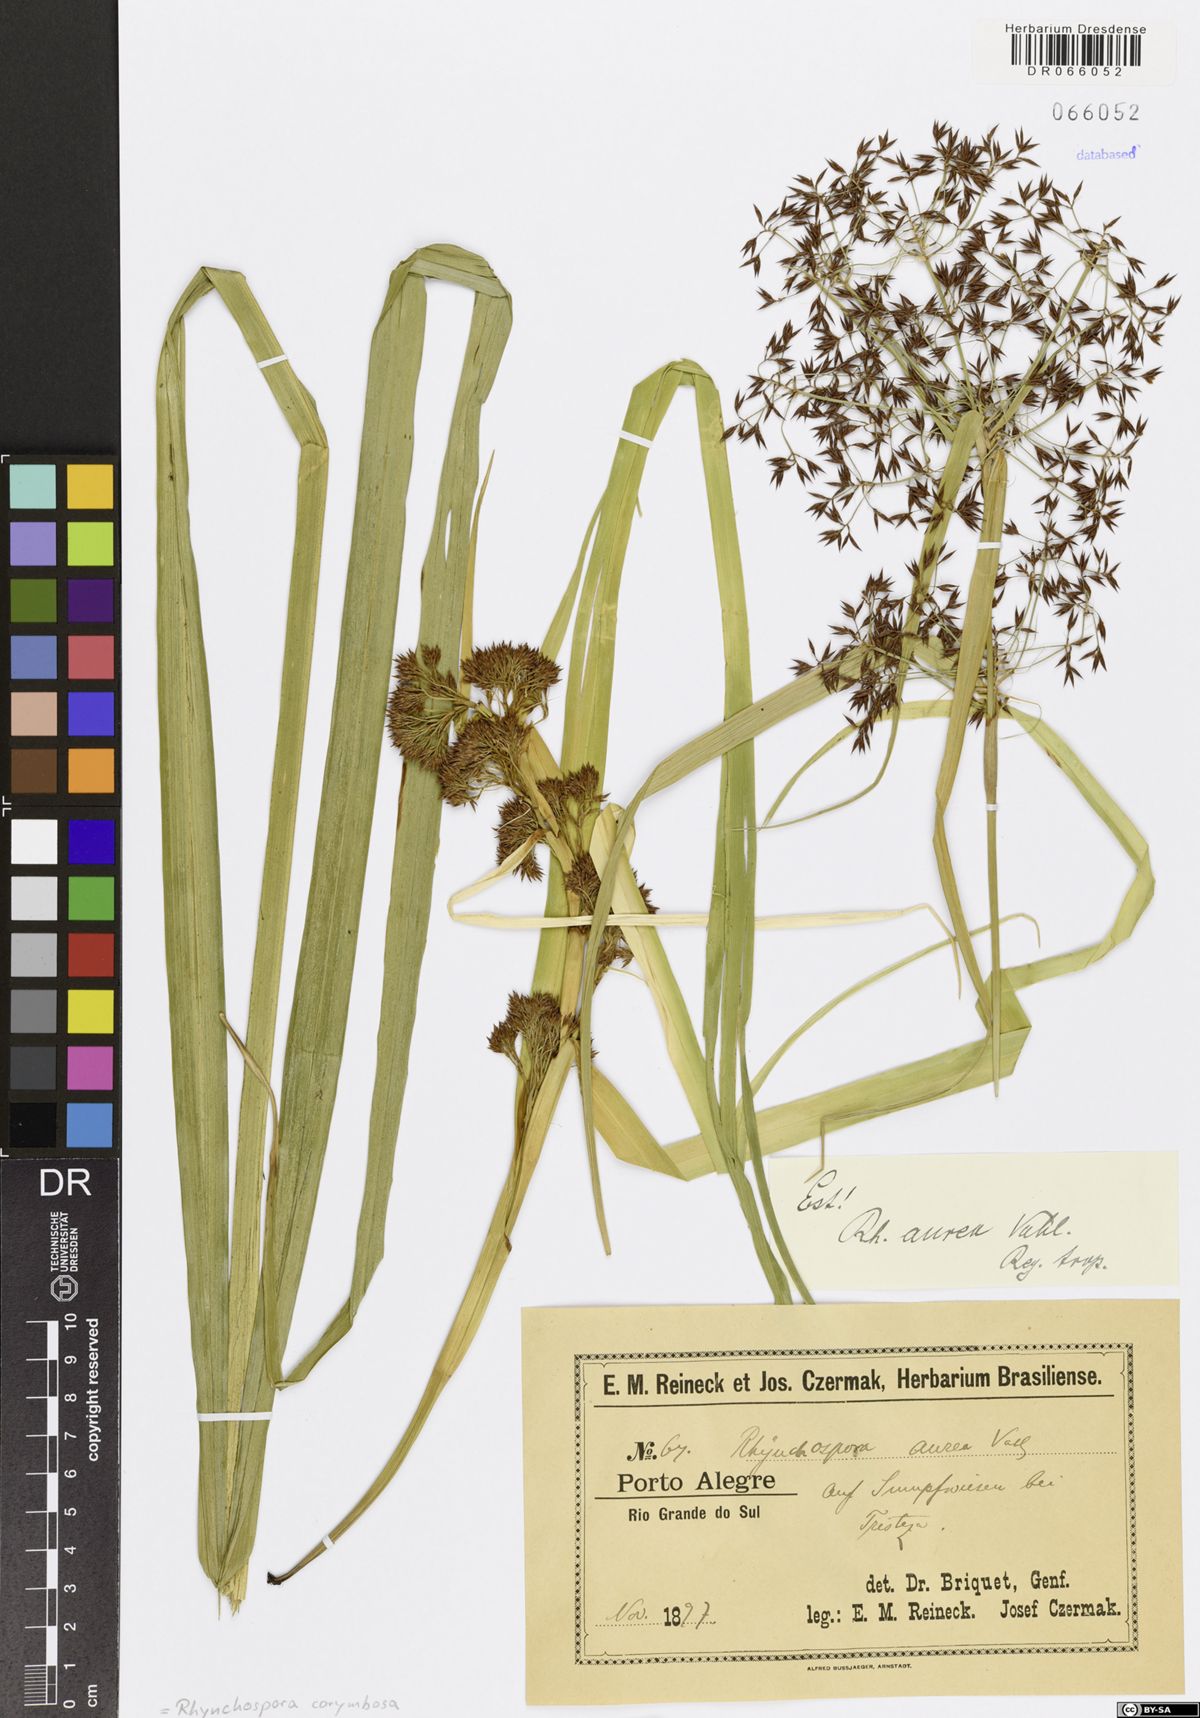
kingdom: Plantae
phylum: Tracheophyta
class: Liliopsida
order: Poales
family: Cyperaceae
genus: Rhynchospora
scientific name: Rhynchospora corymbosa
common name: Golden beak sedge
